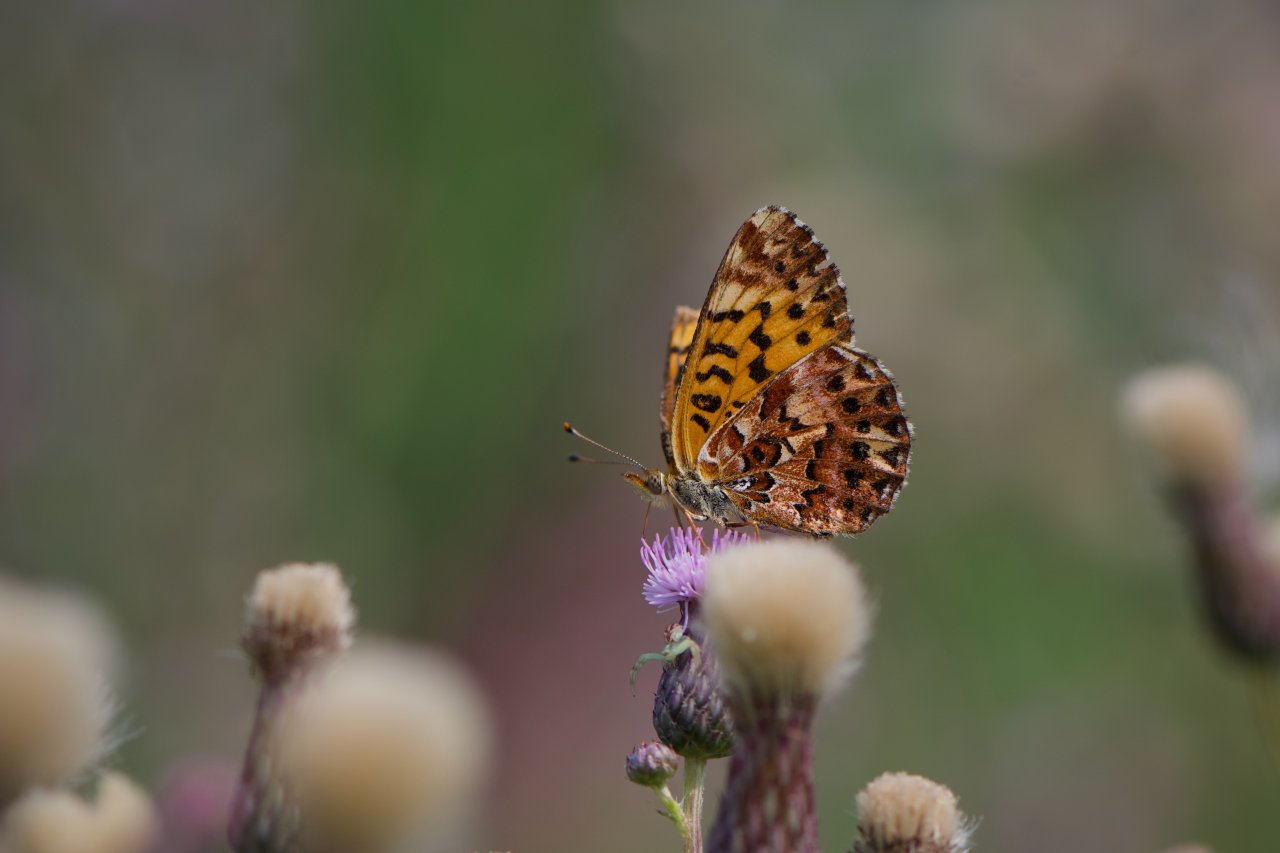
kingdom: Animalia
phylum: Arthropoda
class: Insecta
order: Lepidoptera
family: Nymphalidae
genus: Boloria
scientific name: Boloria chariclea
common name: Arctic Fritillary
